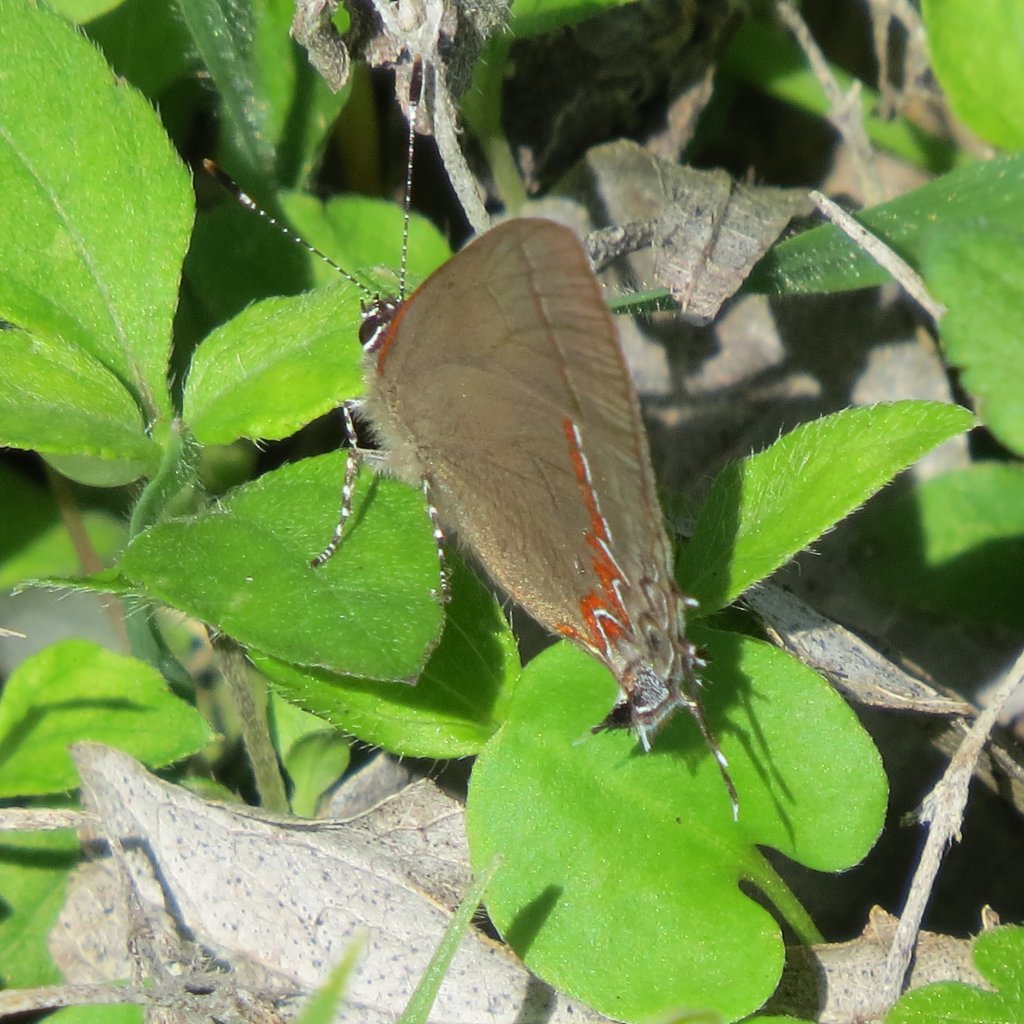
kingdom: Animalia
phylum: Arthropoda
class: Insecta
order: Lepidoptera
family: Lycaenidae
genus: Calycopis
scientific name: Calycopis isobeon
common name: Dusky-blue Groundstreak
